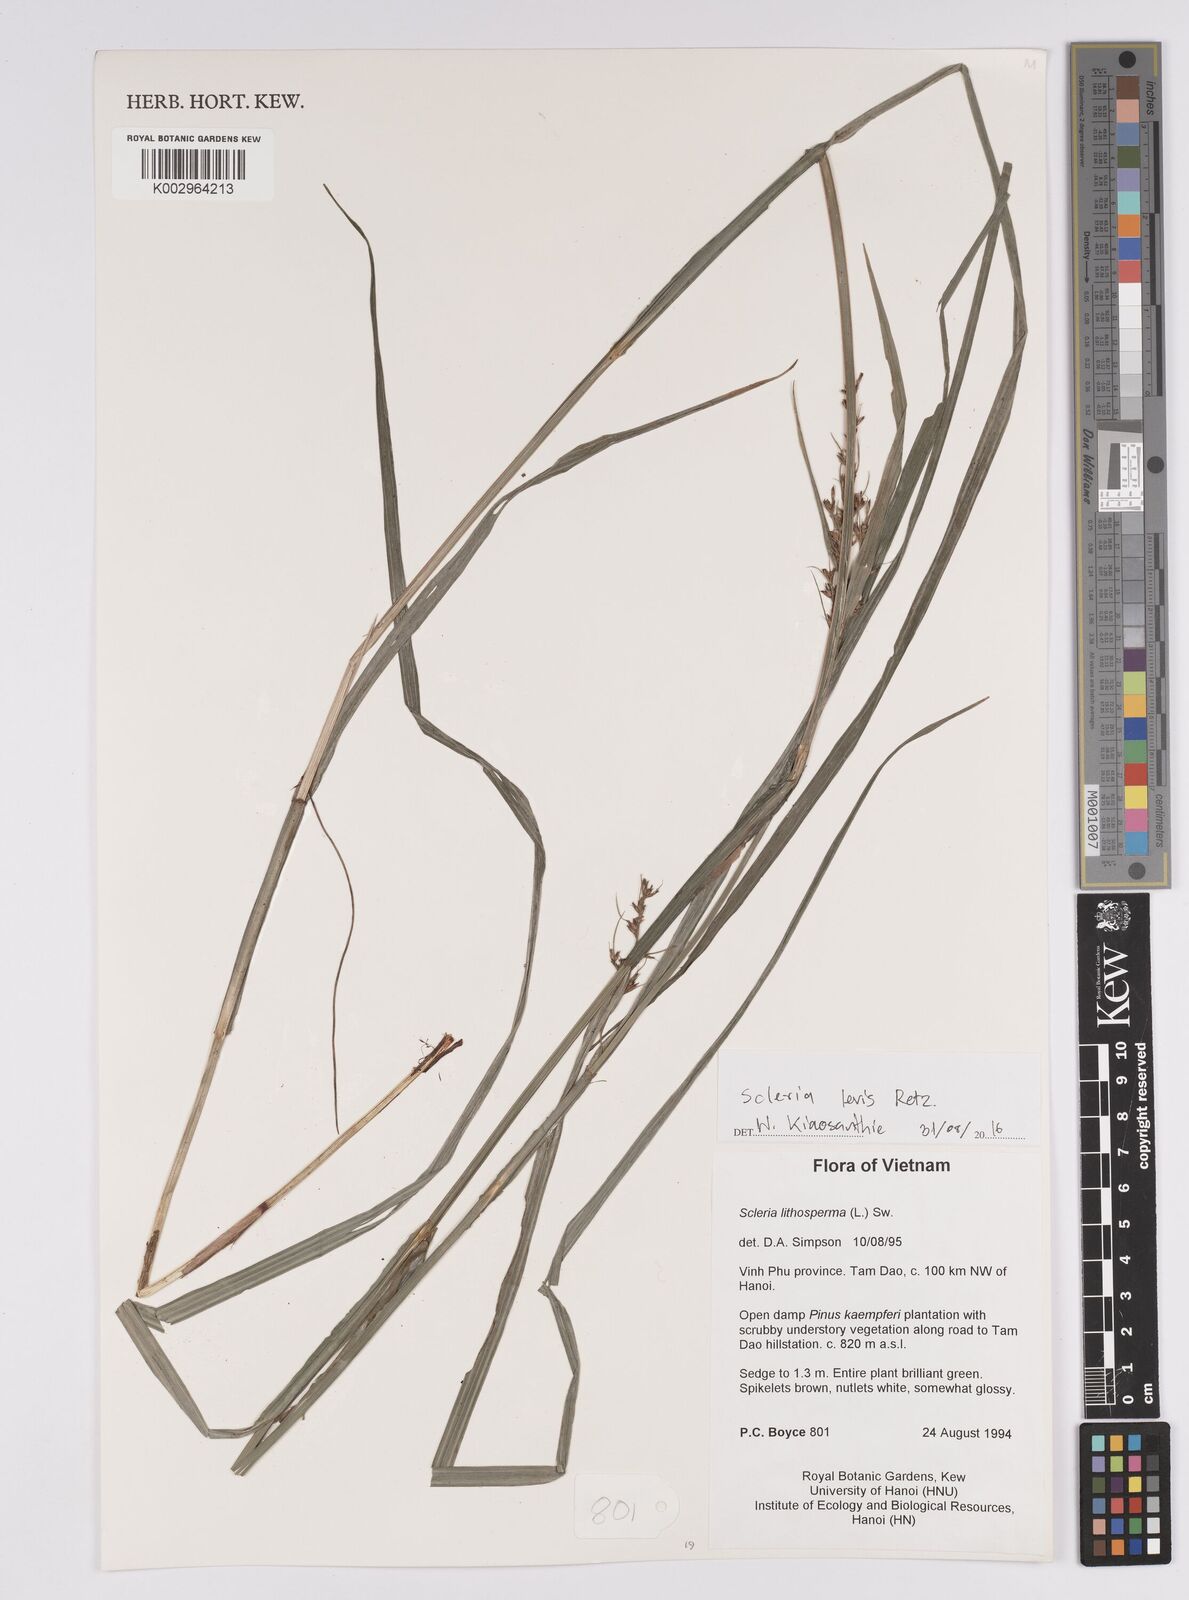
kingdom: Plantae
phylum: Tracheophyta
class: Liliopsida
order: Poales
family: Cyperaceae
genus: Scleria
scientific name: Scleria levis
